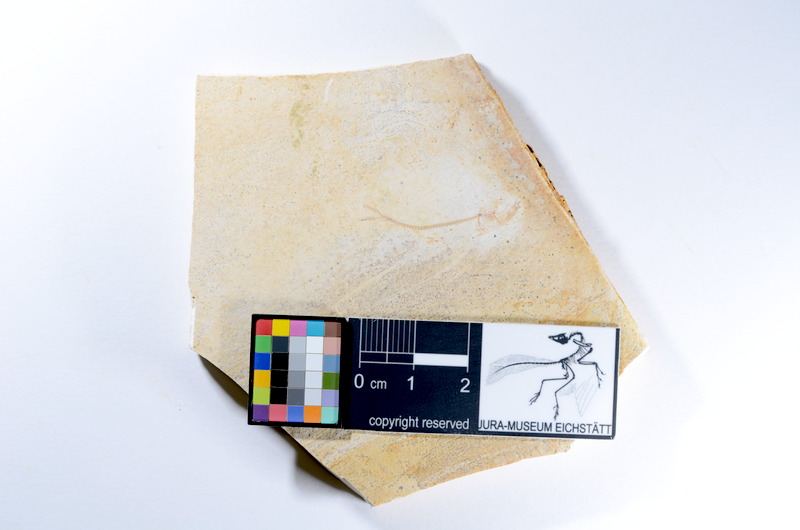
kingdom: Animalia
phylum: Chordata
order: Salmoniformes
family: Orthogonikleithridae
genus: Orthogonikleithrus
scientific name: Orthogonikleithrus hoelli
